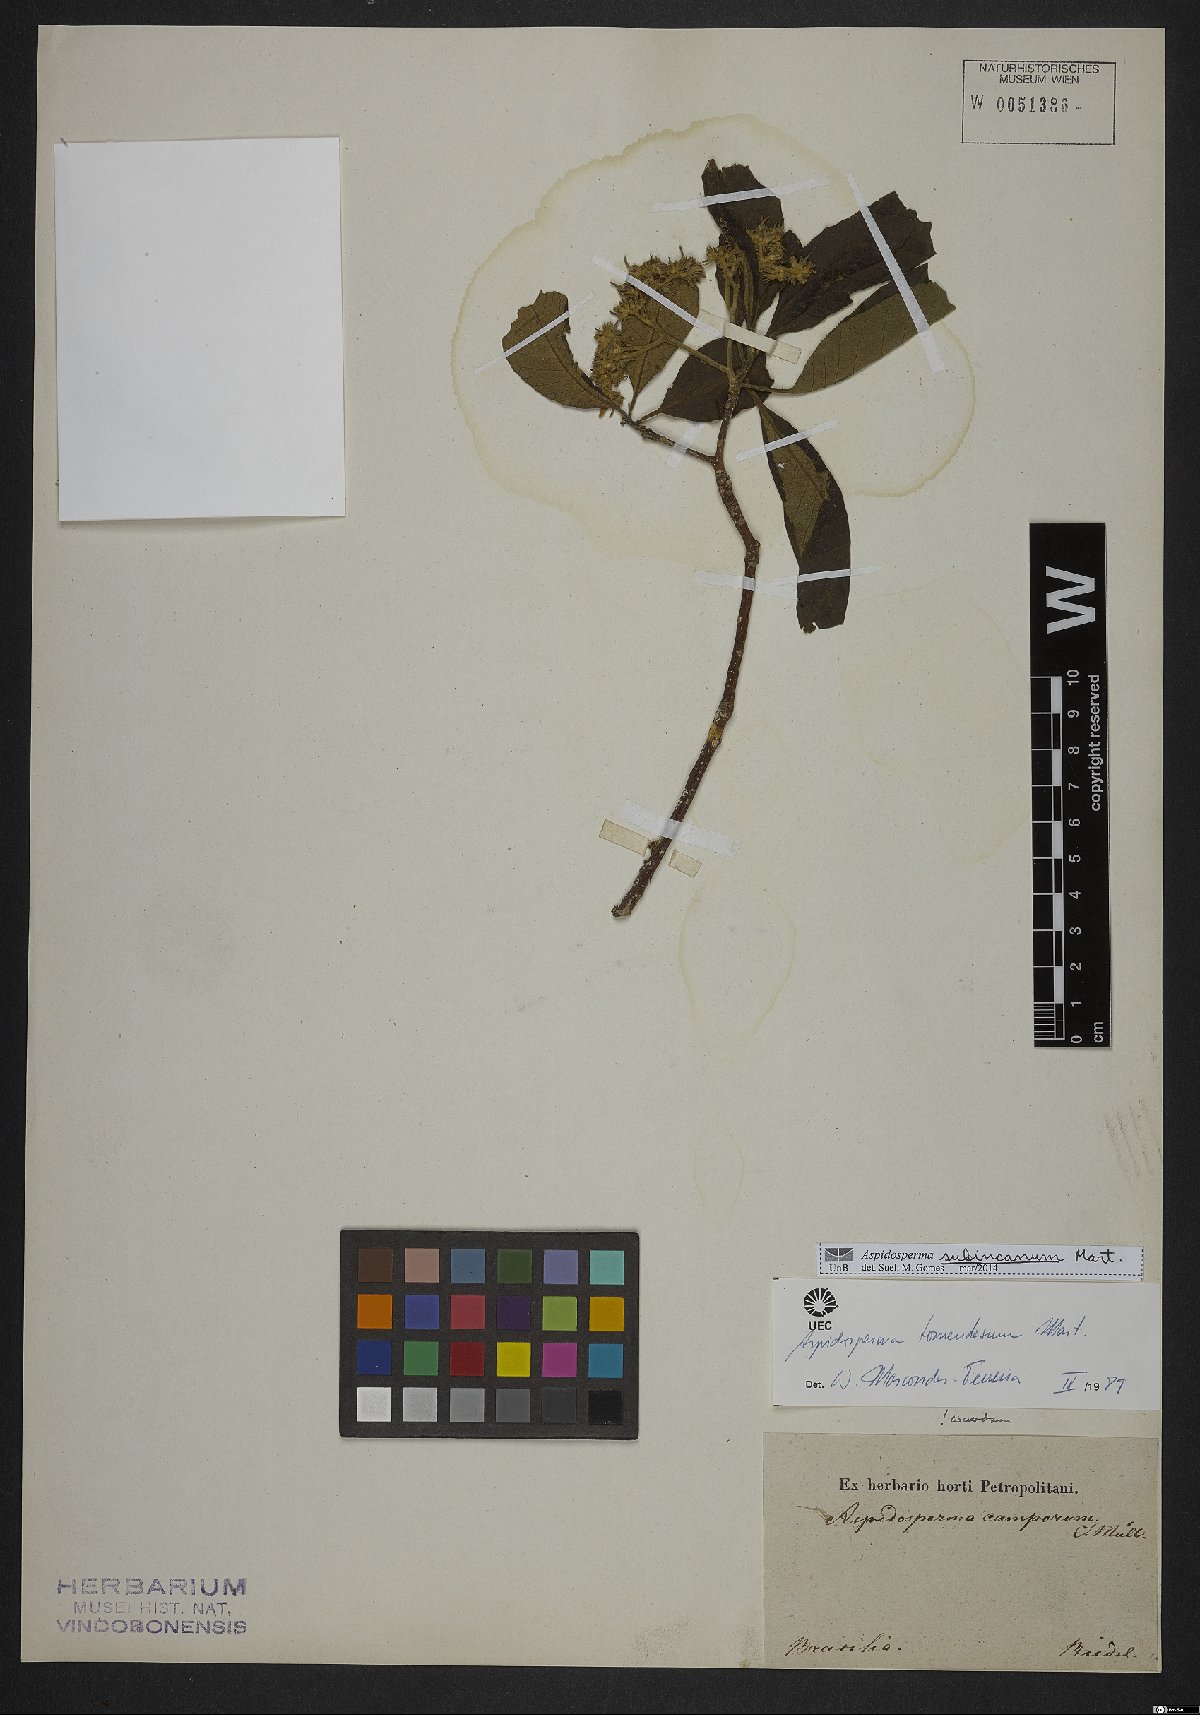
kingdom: Plantae
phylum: Tracheophyta
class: Magnoliopsida
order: Gentianales
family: Apocynaceae
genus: Aspidosperma
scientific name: Aspidosperma subincanum
